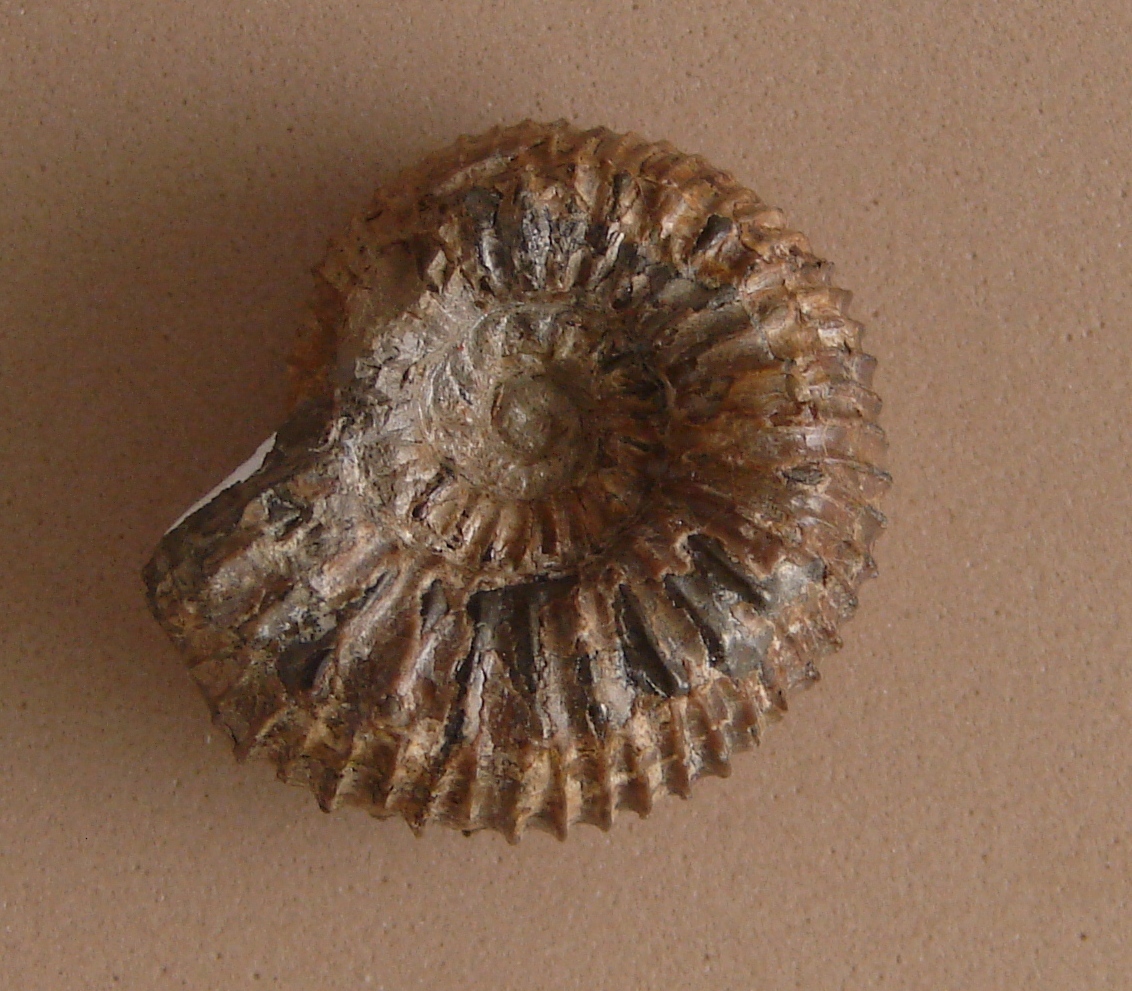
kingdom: Animalia
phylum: Mollusca
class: Cephalopoda
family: Dactylioceratidae
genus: Catacoeloceras
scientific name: Catacoeloceras crassum
